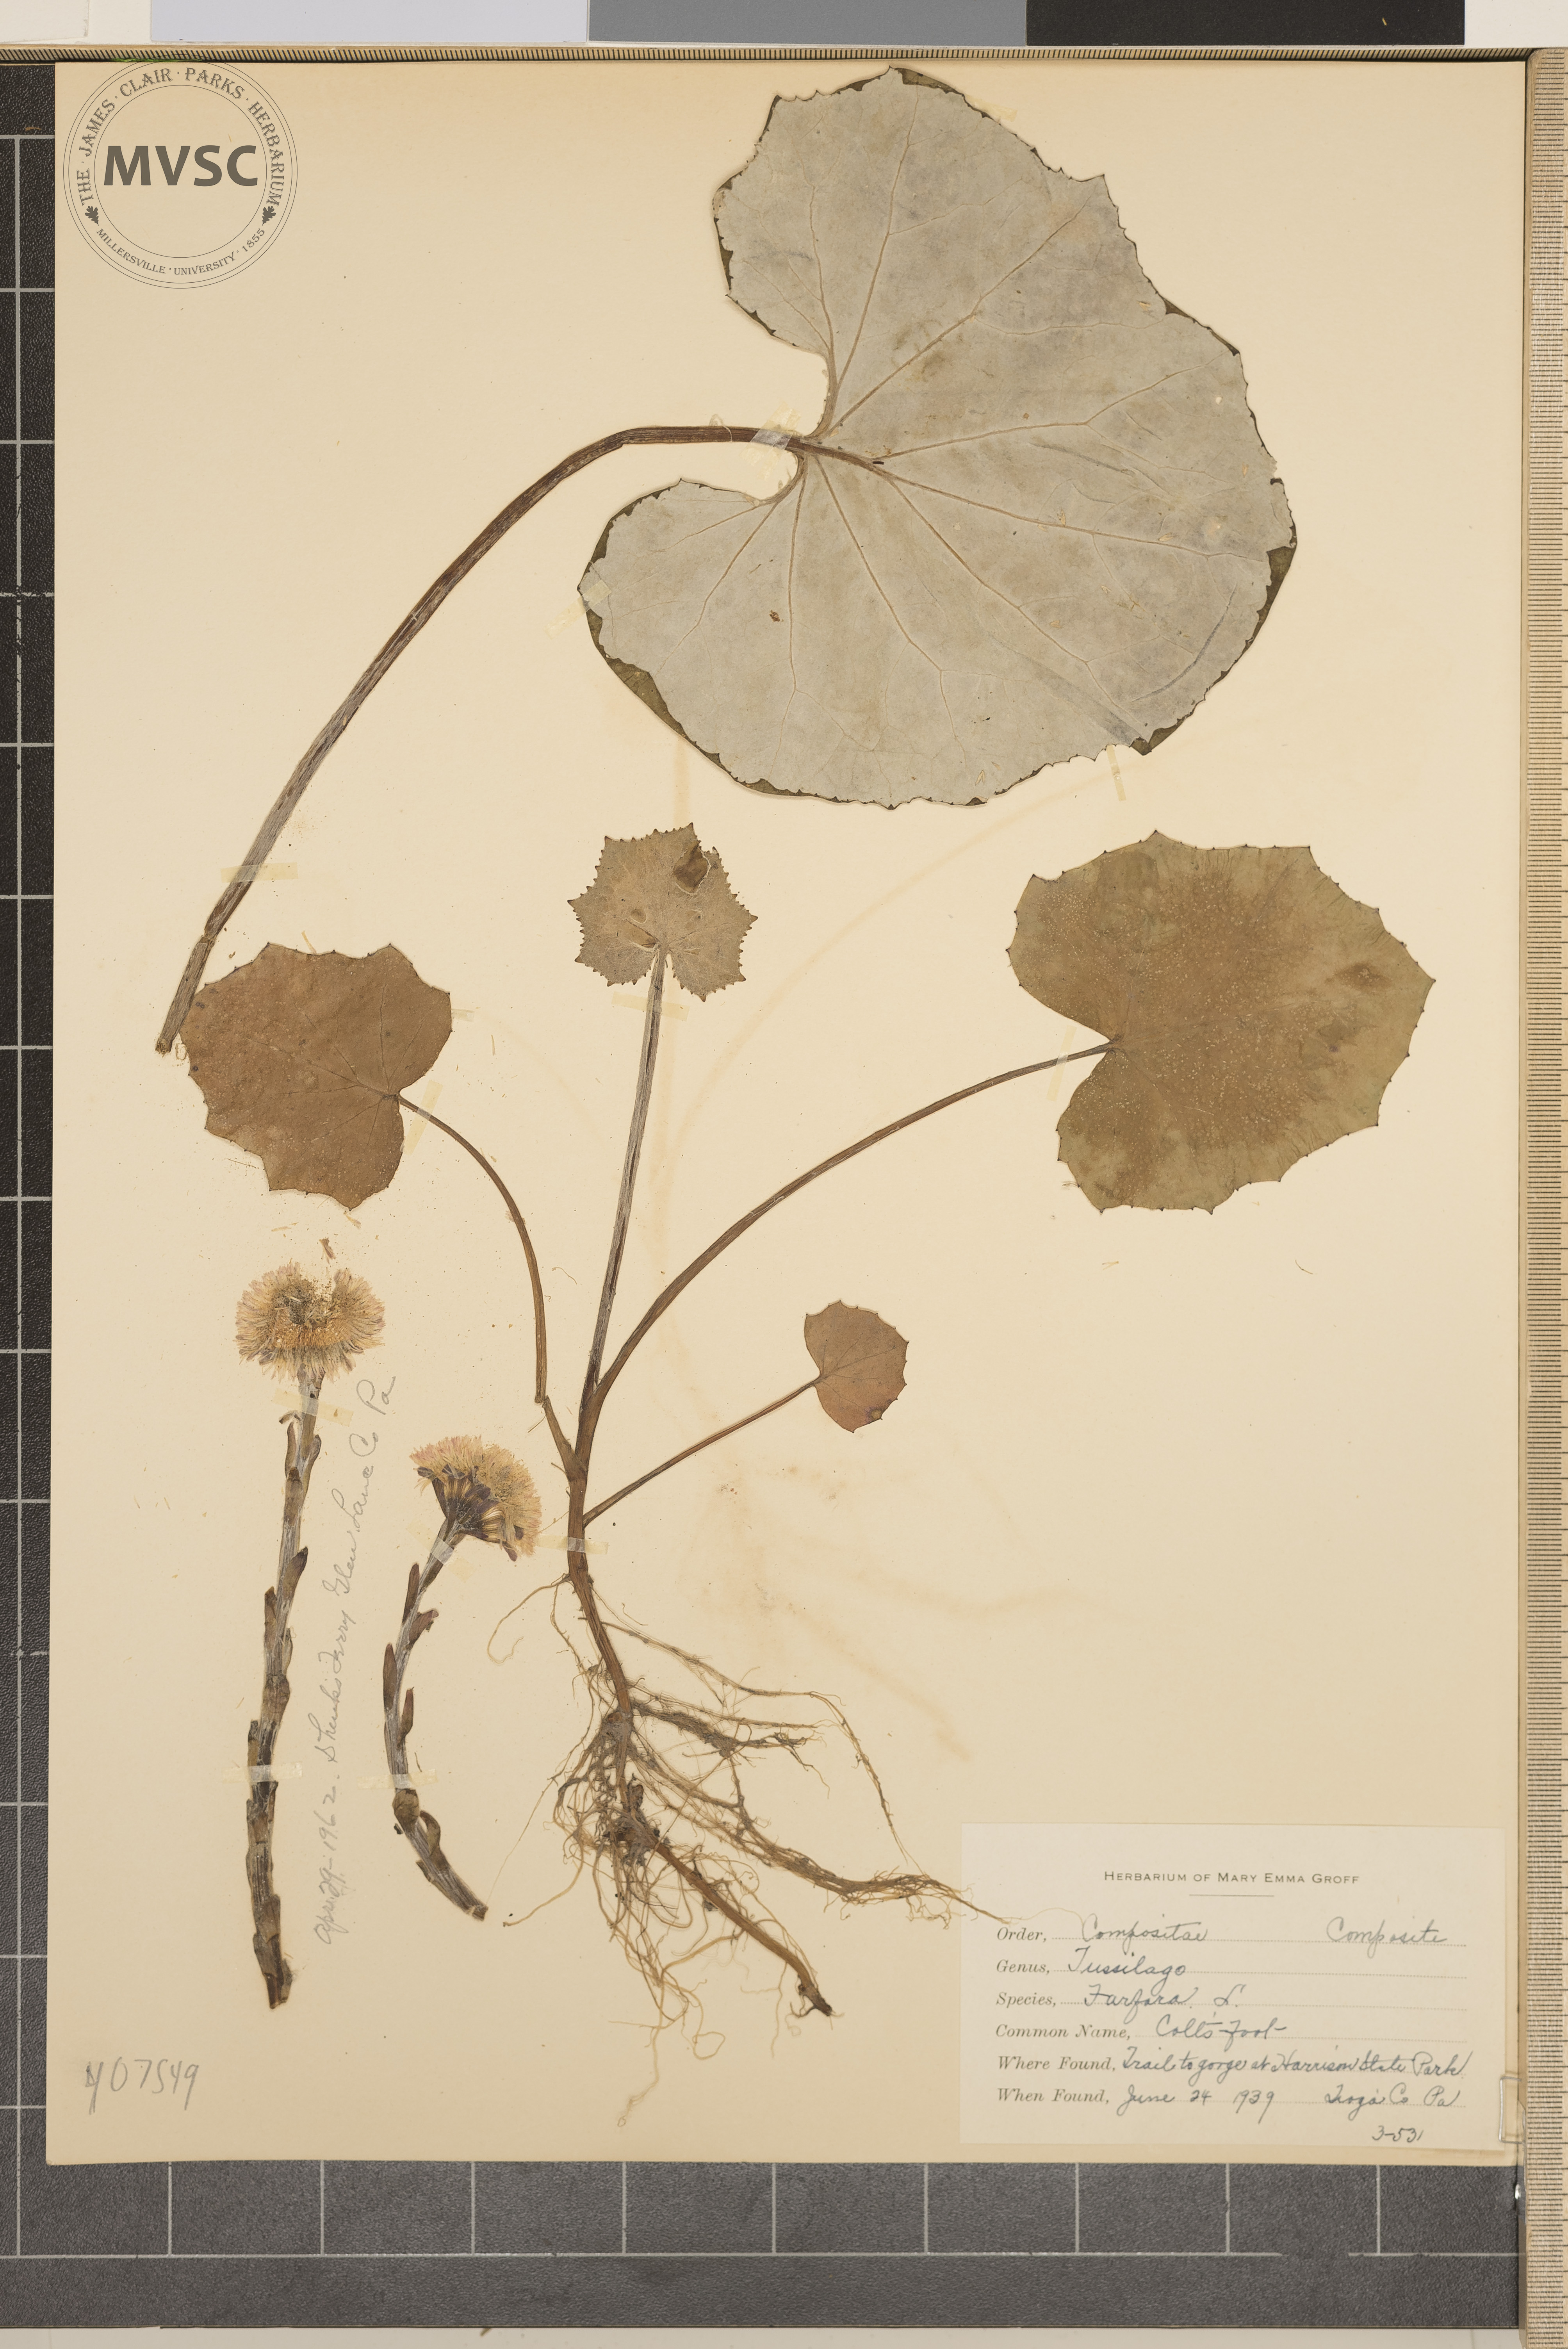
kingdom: Plantae
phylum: Tracheophyta
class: Magnoliopsida
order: Asterales
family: Asteraceae
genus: Tussilago
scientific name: Tussilago farfara
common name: Colt's-foot
